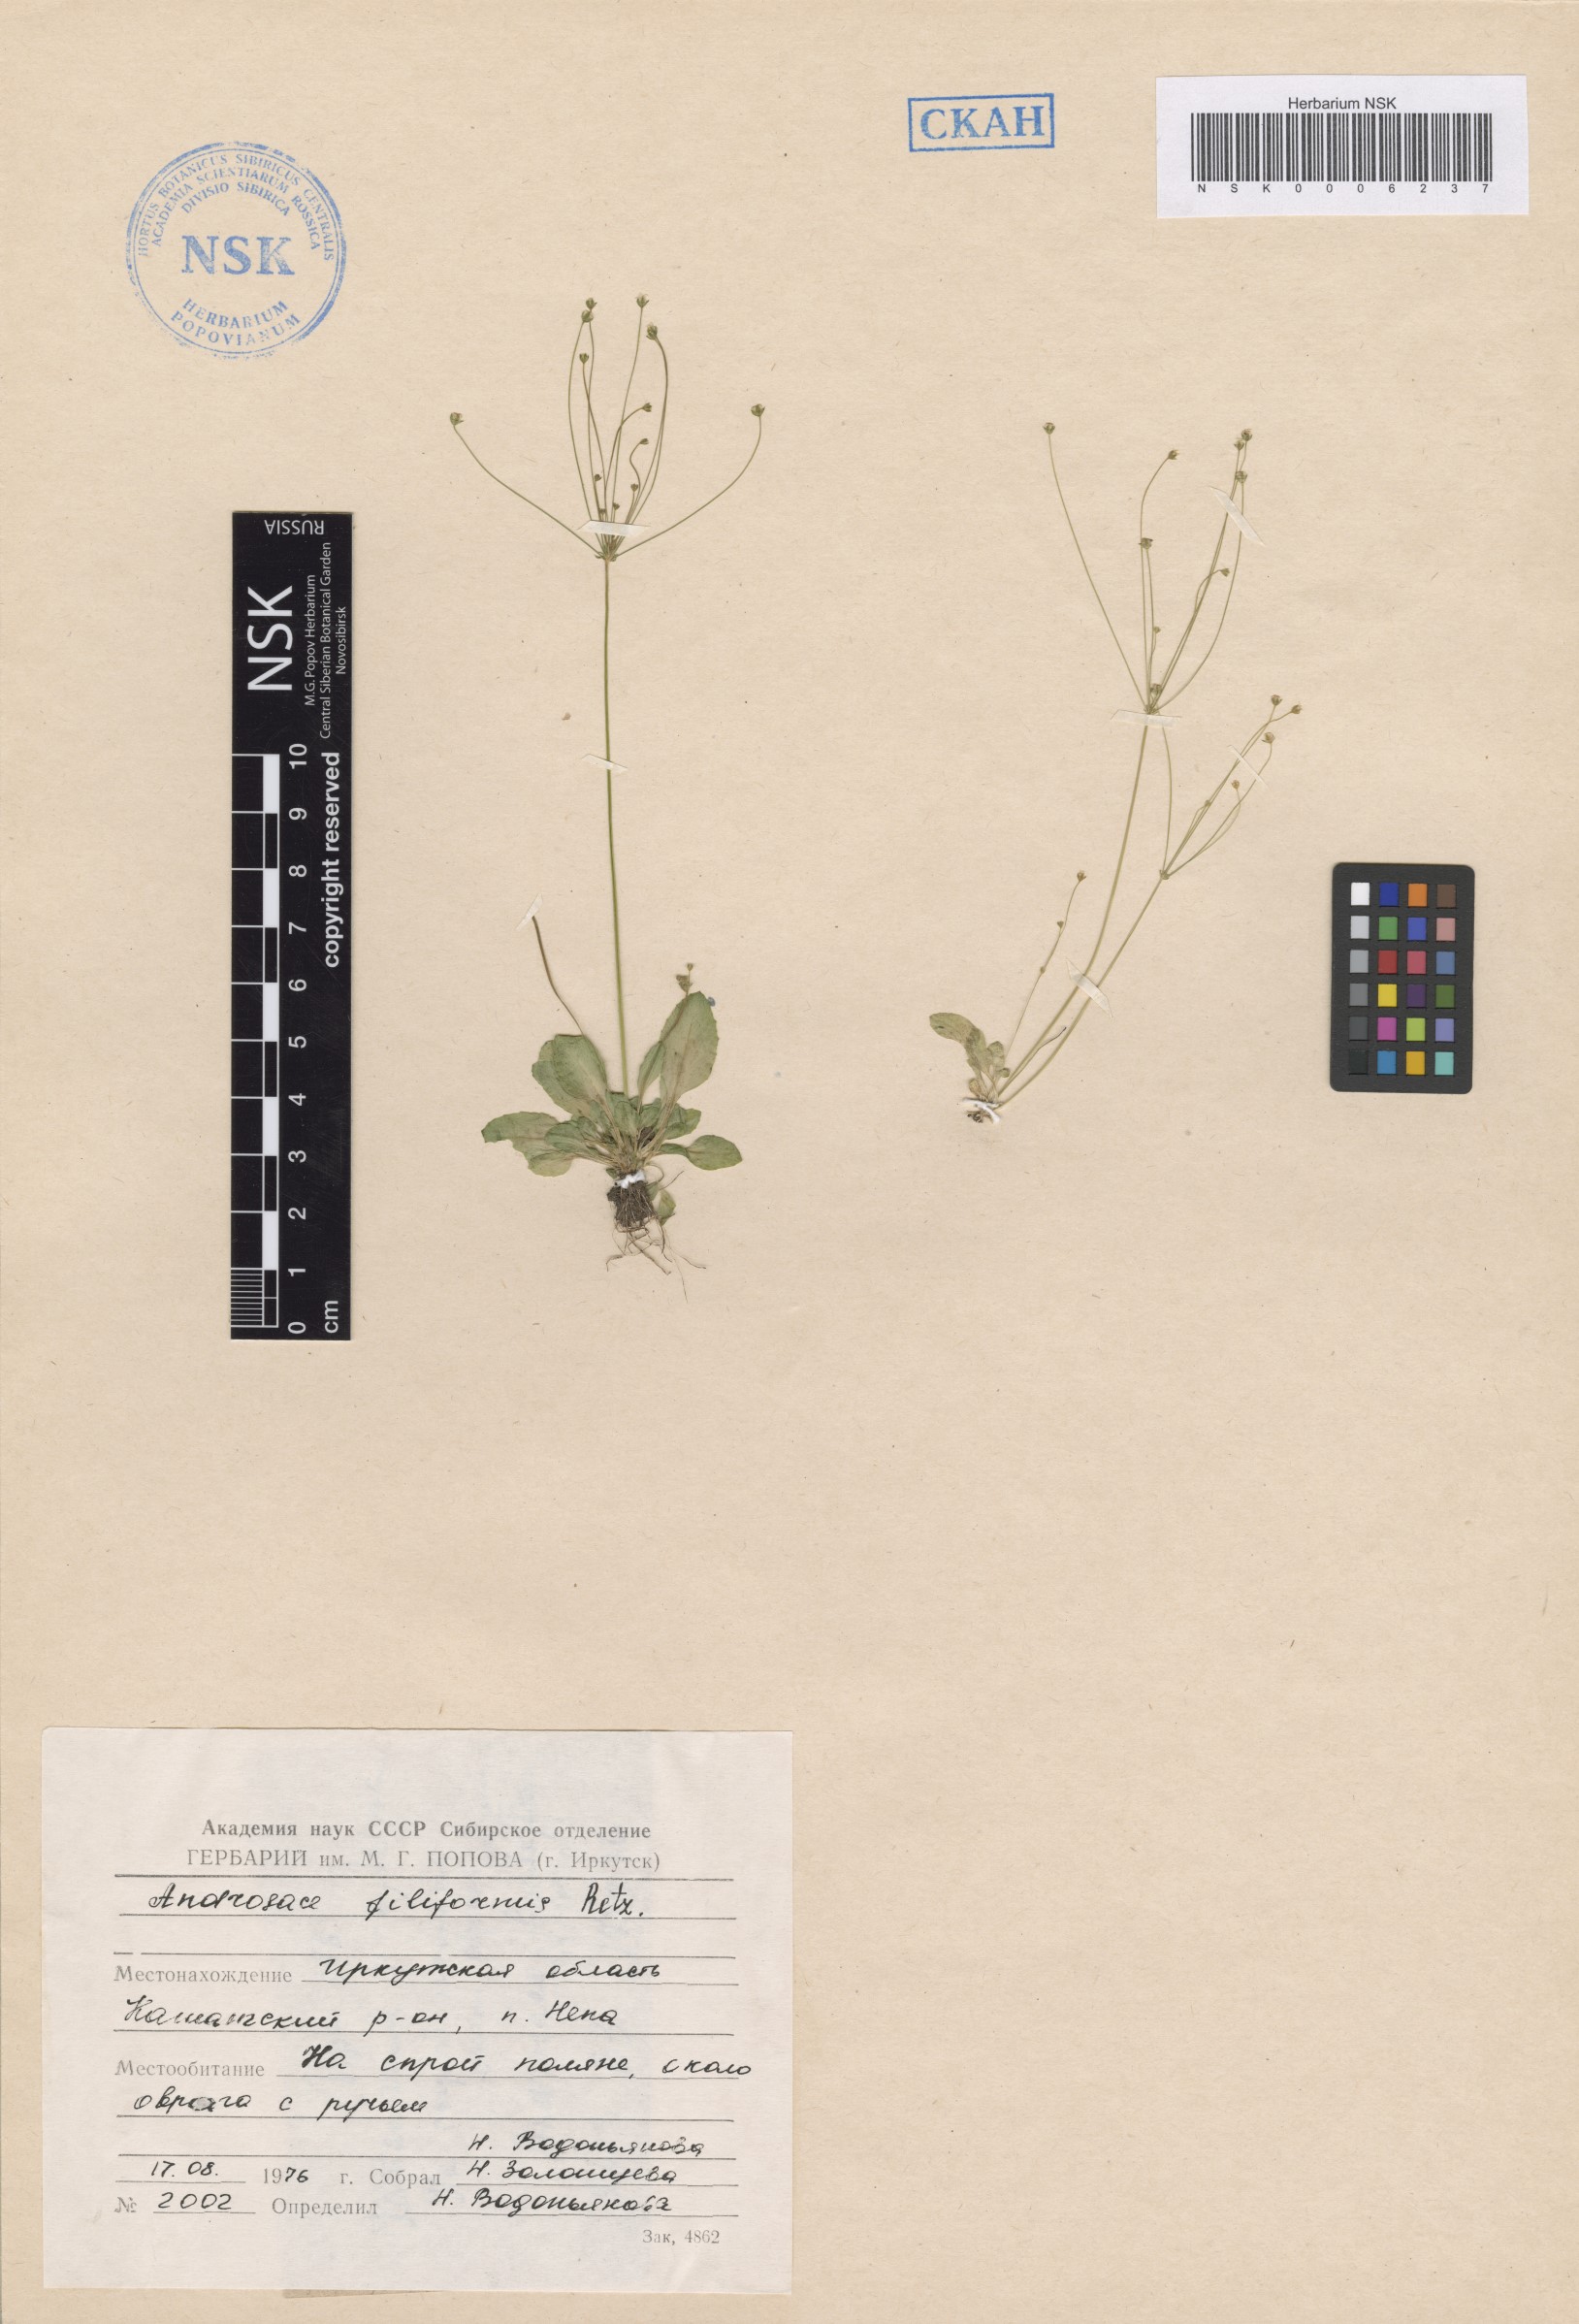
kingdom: Plantae
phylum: Tracheophyta
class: Magnoliopsida
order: Ericales
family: Primulaceae
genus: Androsace
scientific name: Androsace filiformis
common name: Filiform rock jasmine
